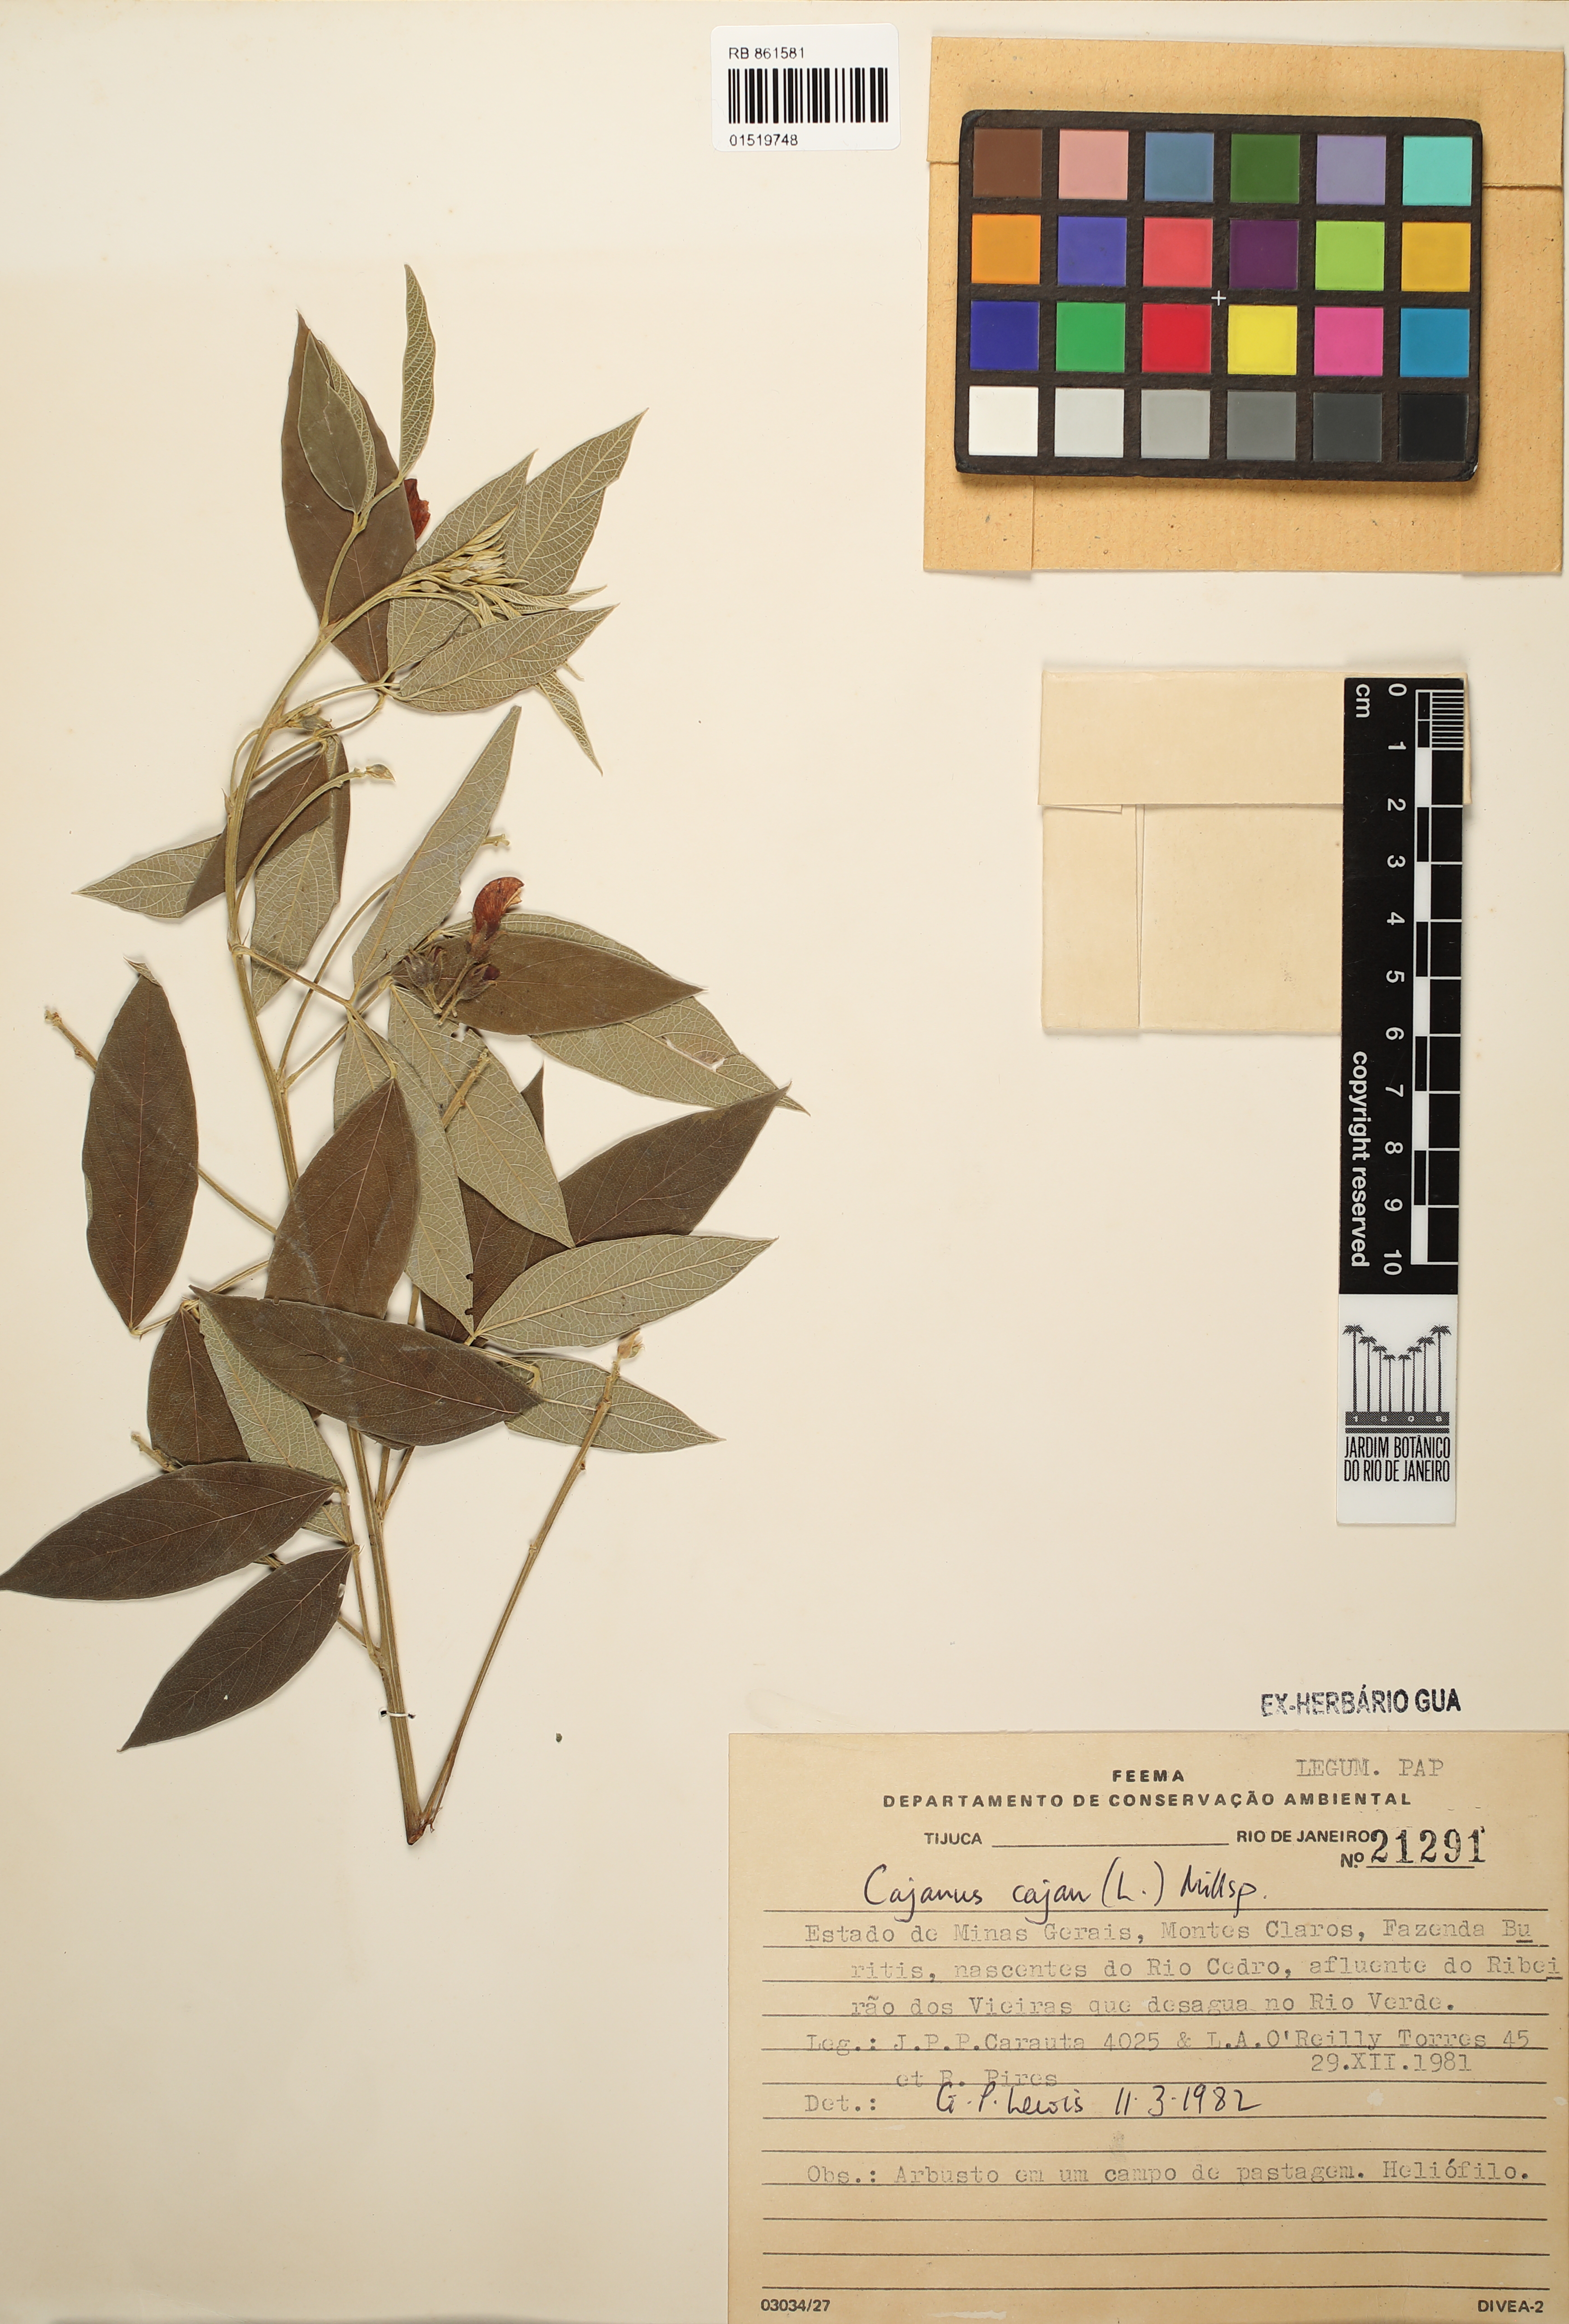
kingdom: Plantae
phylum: Tracheophyta
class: Magnoliopsida
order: Fabales
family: Fabaceae
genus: Cajanus
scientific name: Cajanus cajan
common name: Pigeonpea
